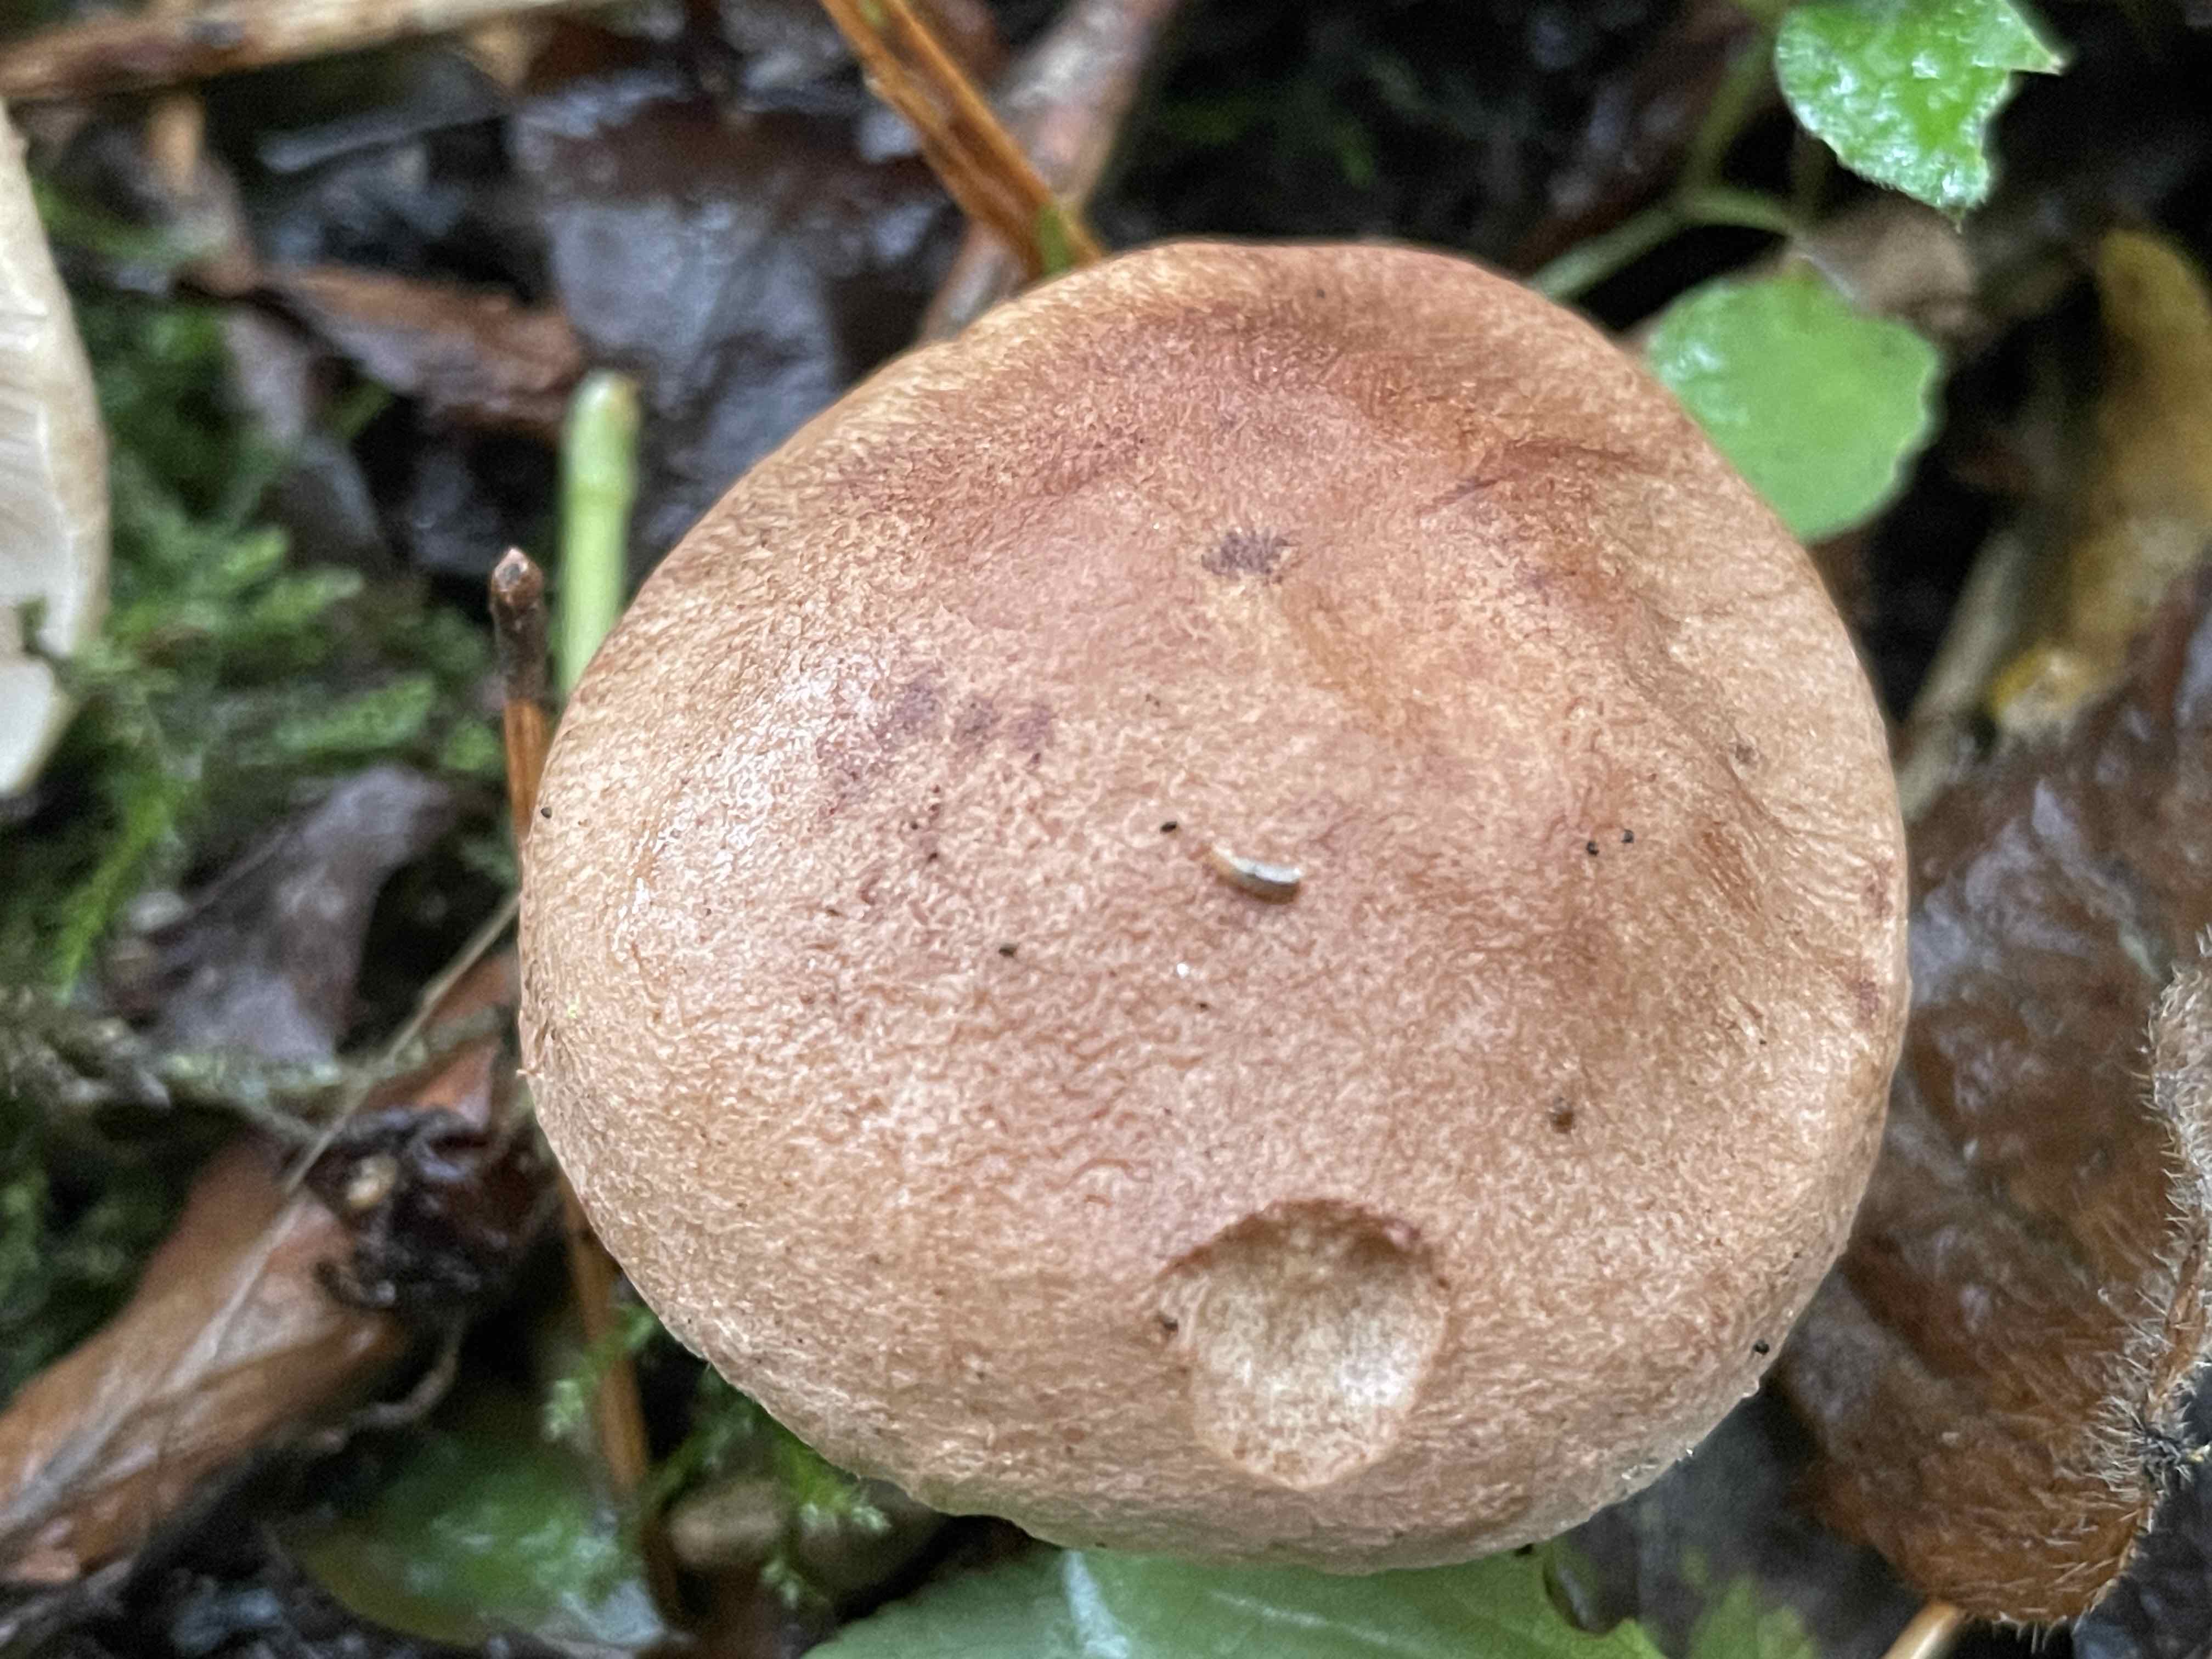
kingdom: Fungi
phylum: Basidiomycota
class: Agaricomycetes
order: Agaricales
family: Tricholomataceae
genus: Tricholoma
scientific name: Tricholoma imbricatum
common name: skællet ridderhat
